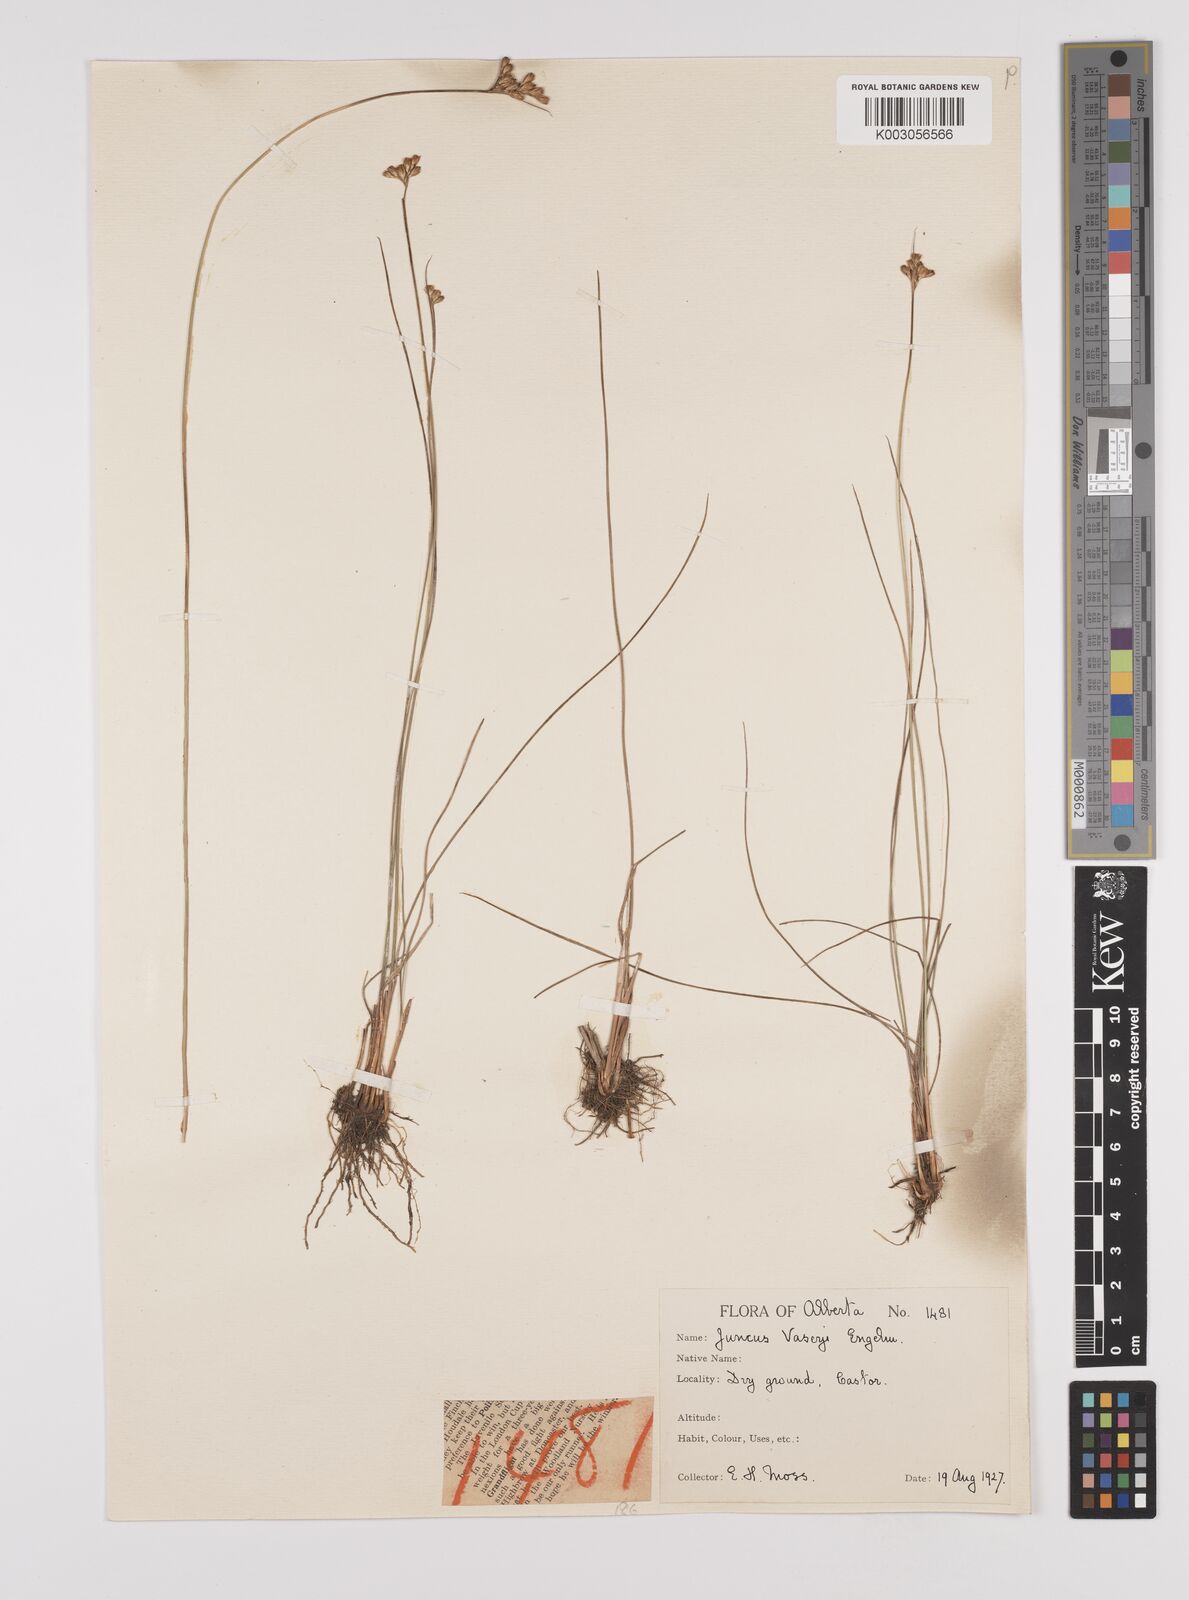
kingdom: Plantae
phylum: Tracheophyta
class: Liliopsida
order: Poales
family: Juncaceae
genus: Juncus
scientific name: Juncus vaseyi
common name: Big-headed rush
